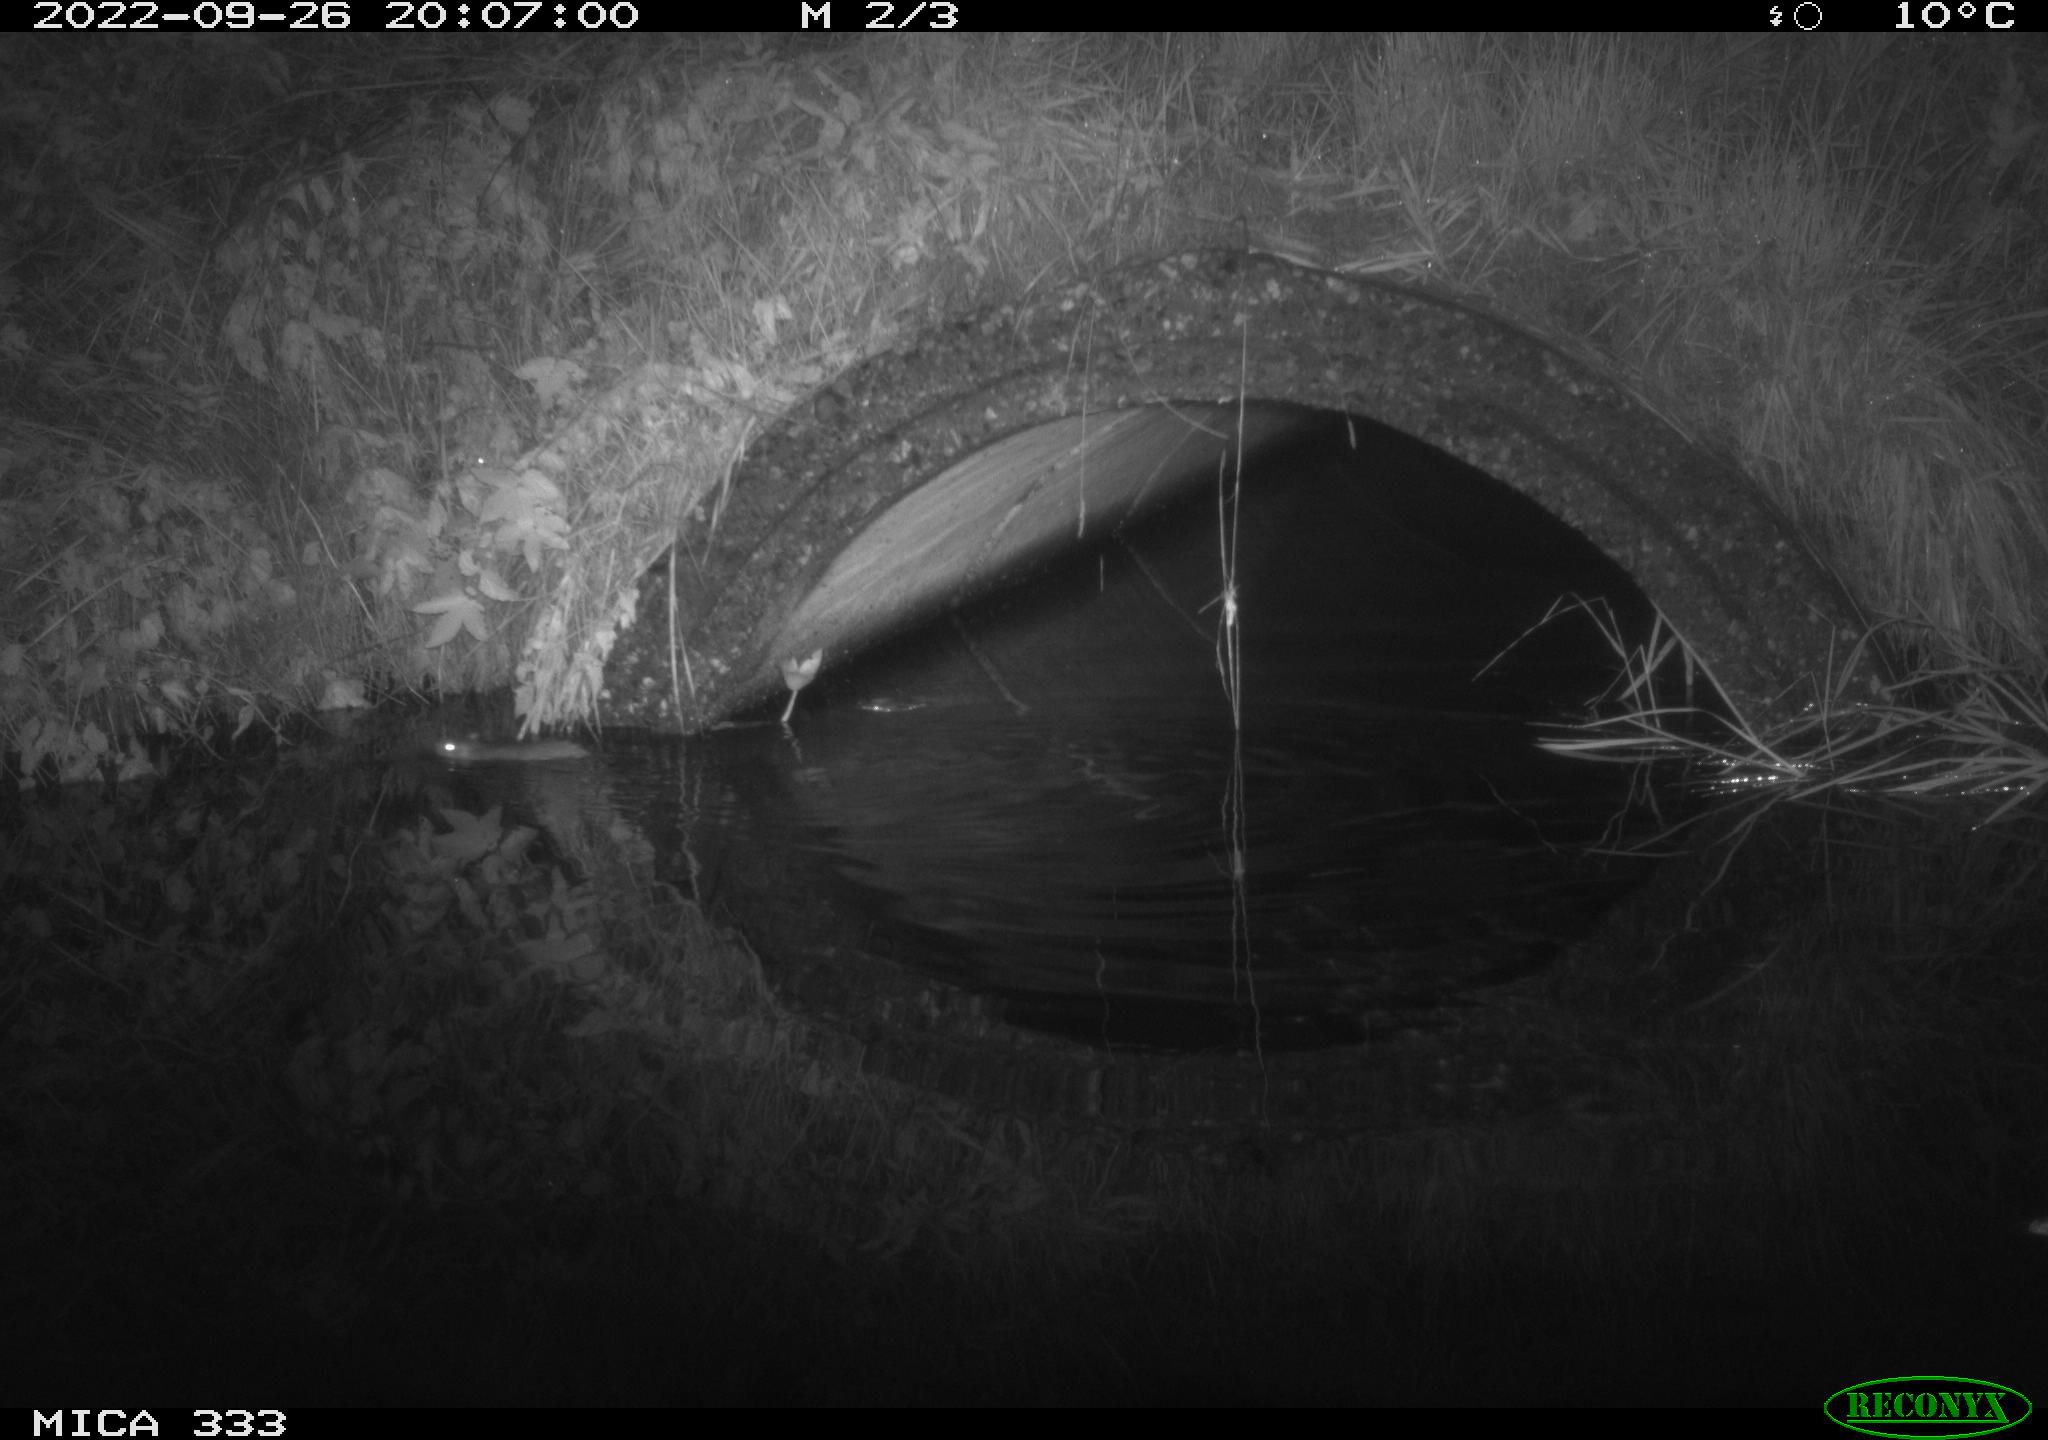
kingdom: Animalia
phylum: Chordata
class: Mammalia
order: Rodentia
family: Muridae
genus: Rattus
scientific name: Rattus norvegicus
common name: Brown rat
